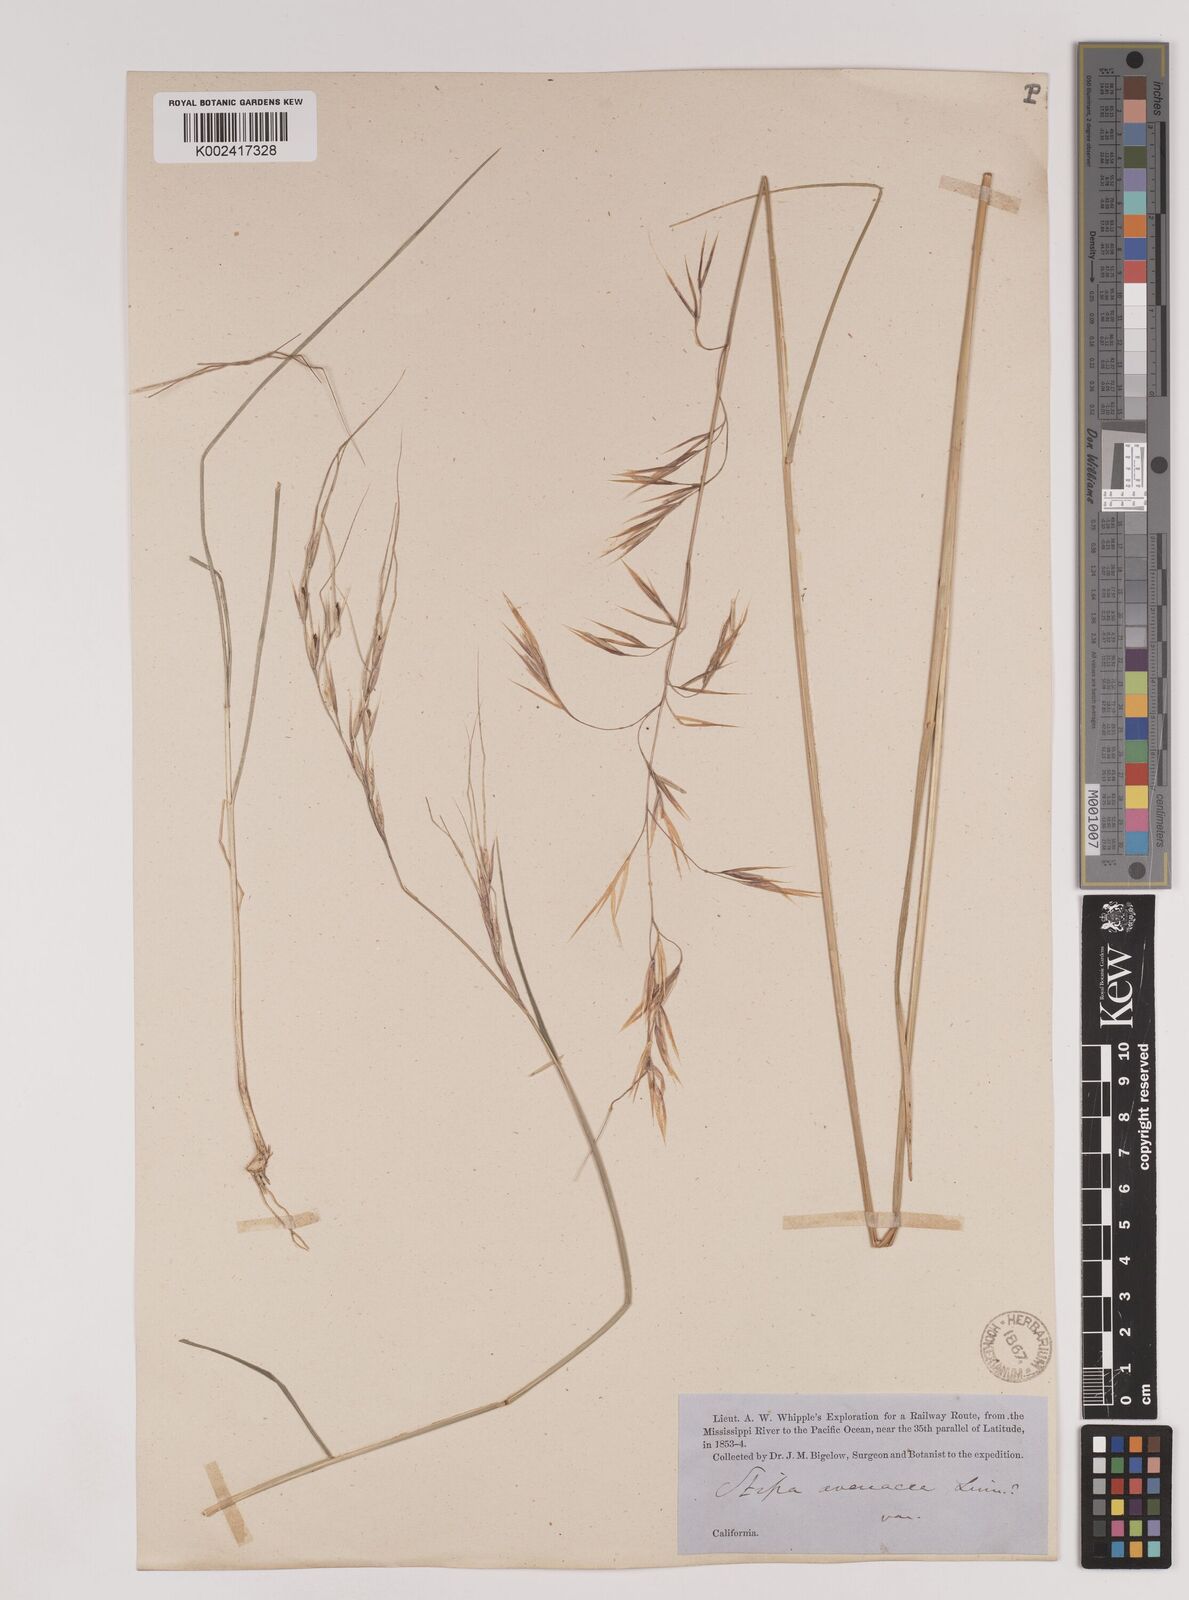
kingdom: Plantae
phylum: Tracheophyta
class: Liliopsida
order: Poales
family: Poaceae
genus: Nassella
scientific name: Nassella pulchra
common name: Purple needlegrass
